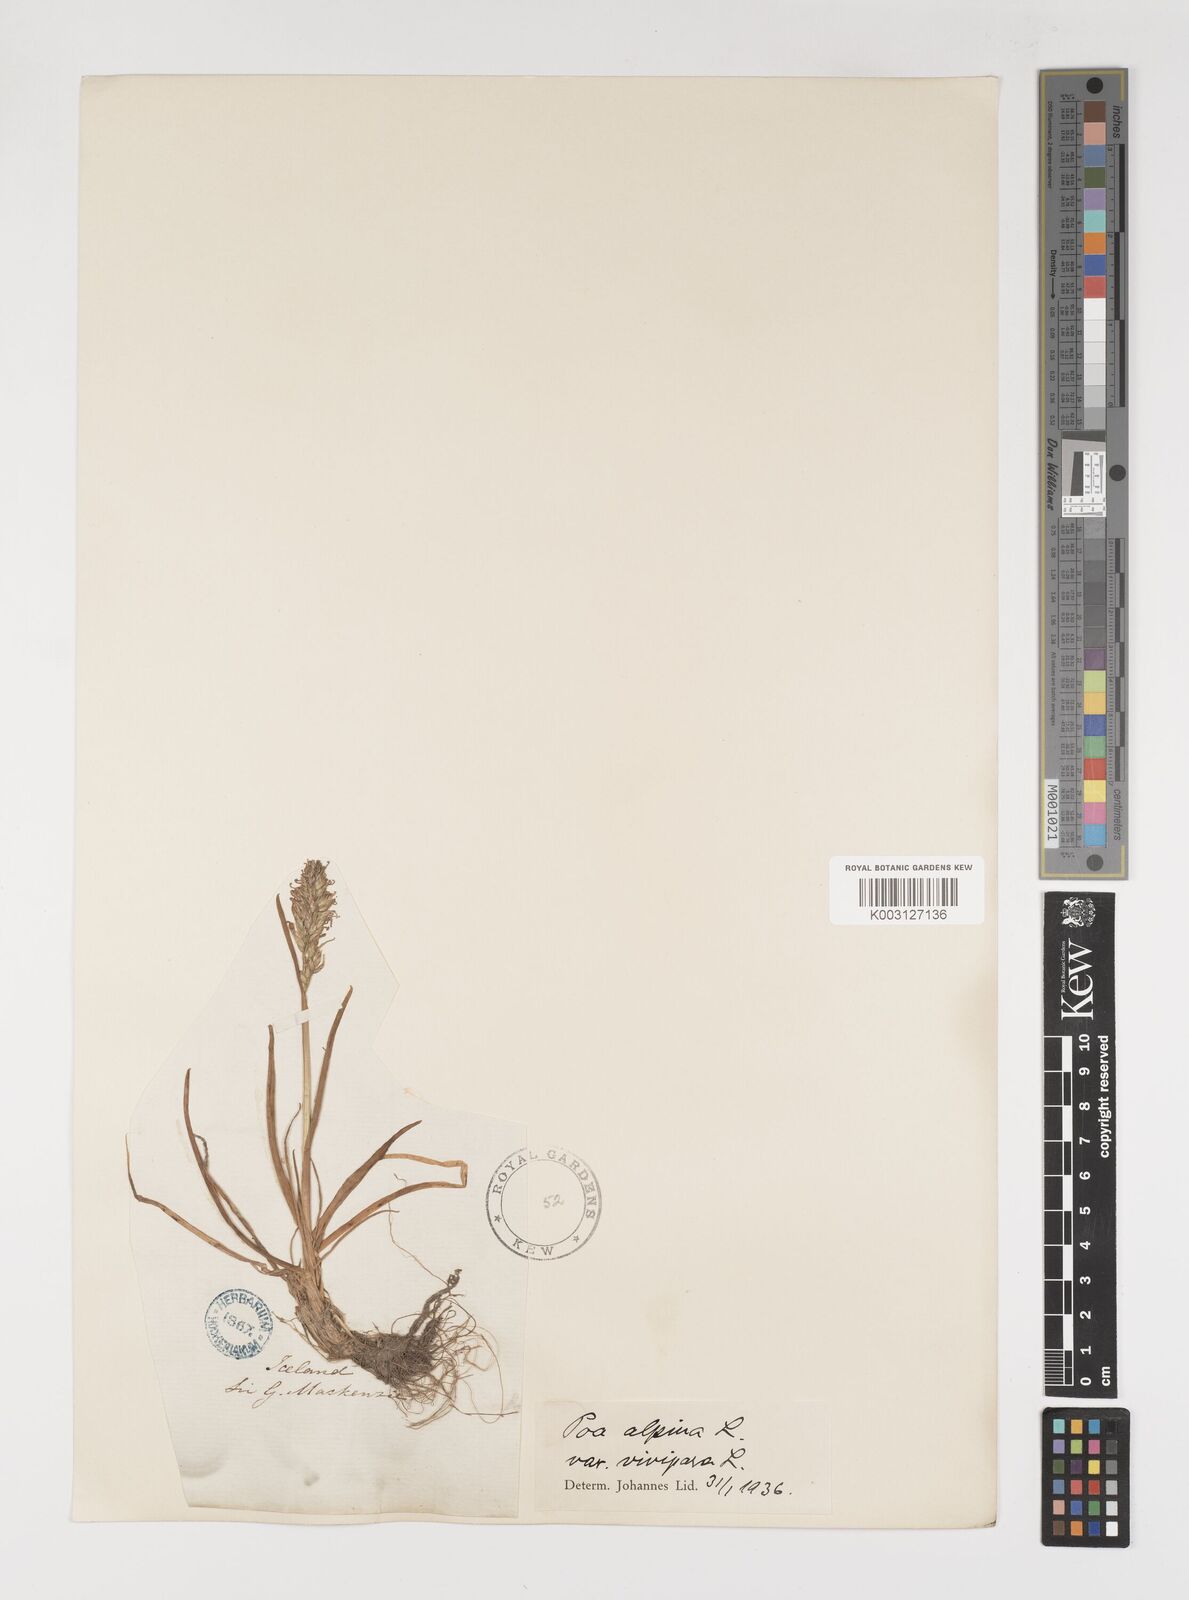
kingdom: Plantae
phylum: Tracheophyta
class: Liliopsida
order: Poales
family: Poaceae
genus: Poa
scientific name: Poa alpina
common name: Alpine bluegrass
